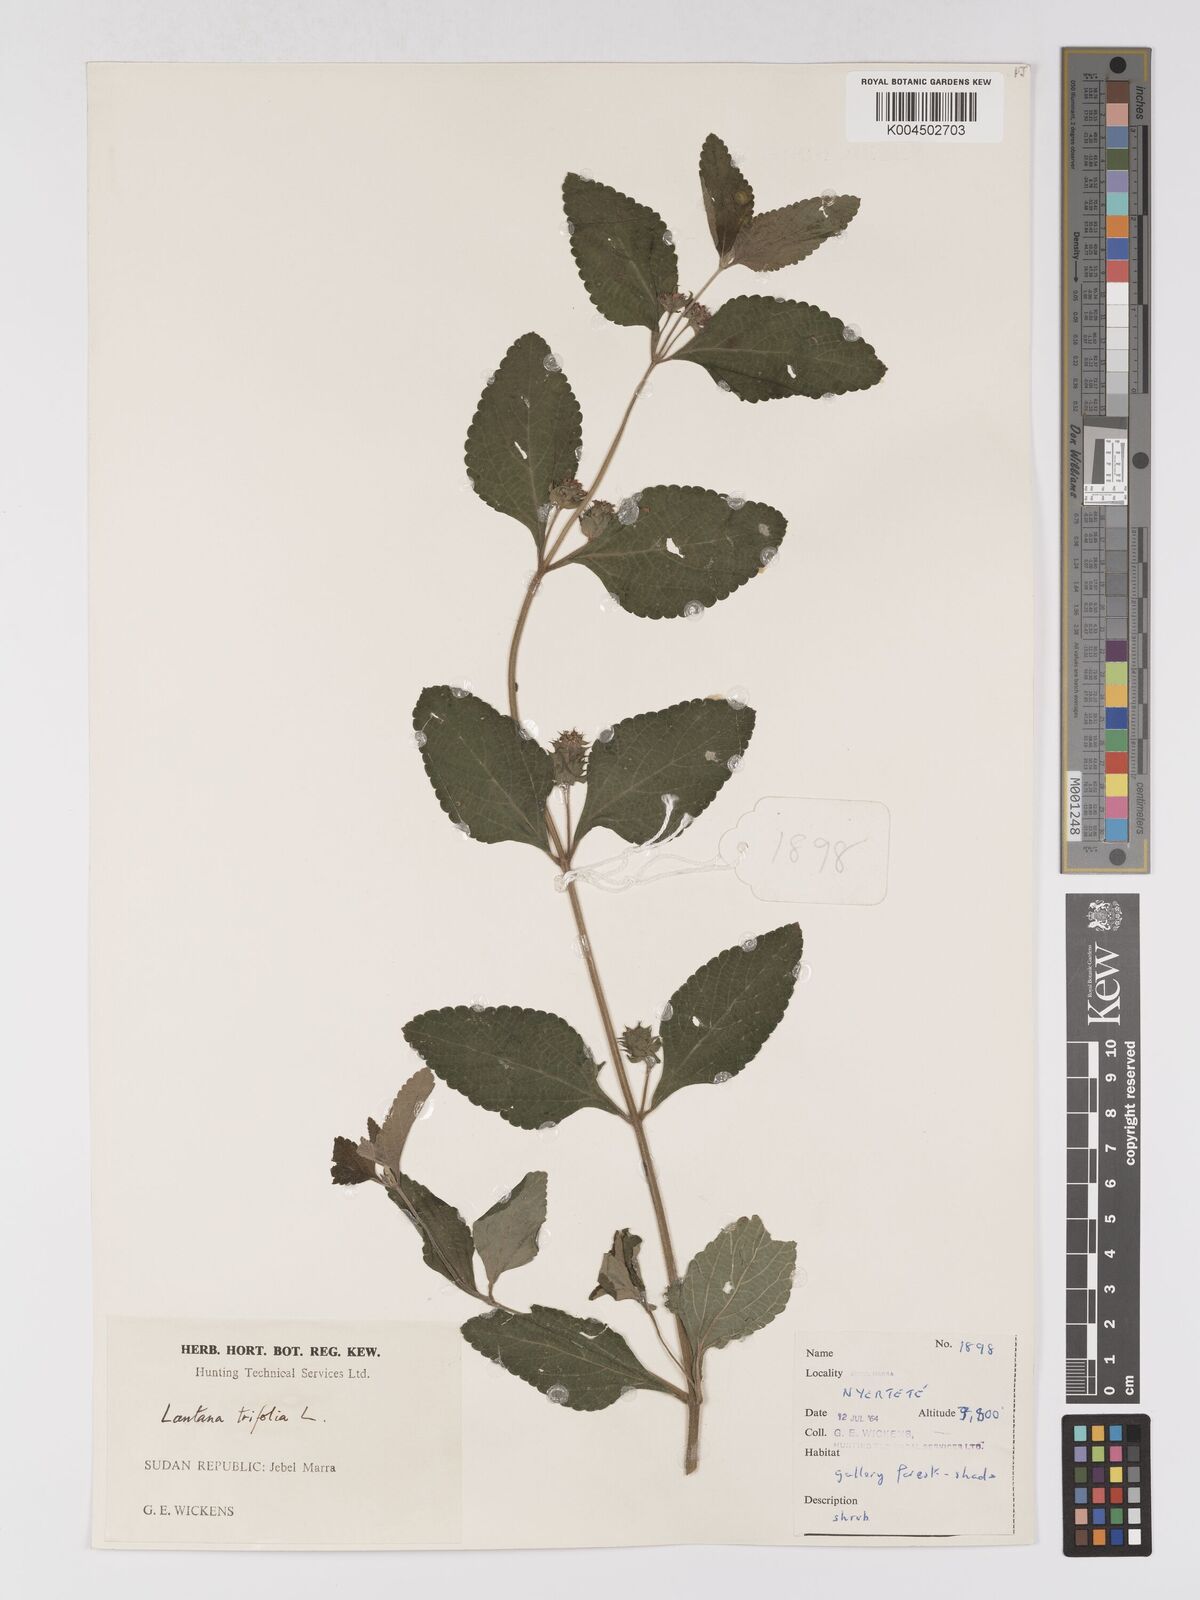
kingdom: Plantae
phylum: Tracheophyta
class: Magnoliopsida
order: Lamiales
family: Verbenaceae
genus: Lantana
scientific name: Lantana ukambensis
